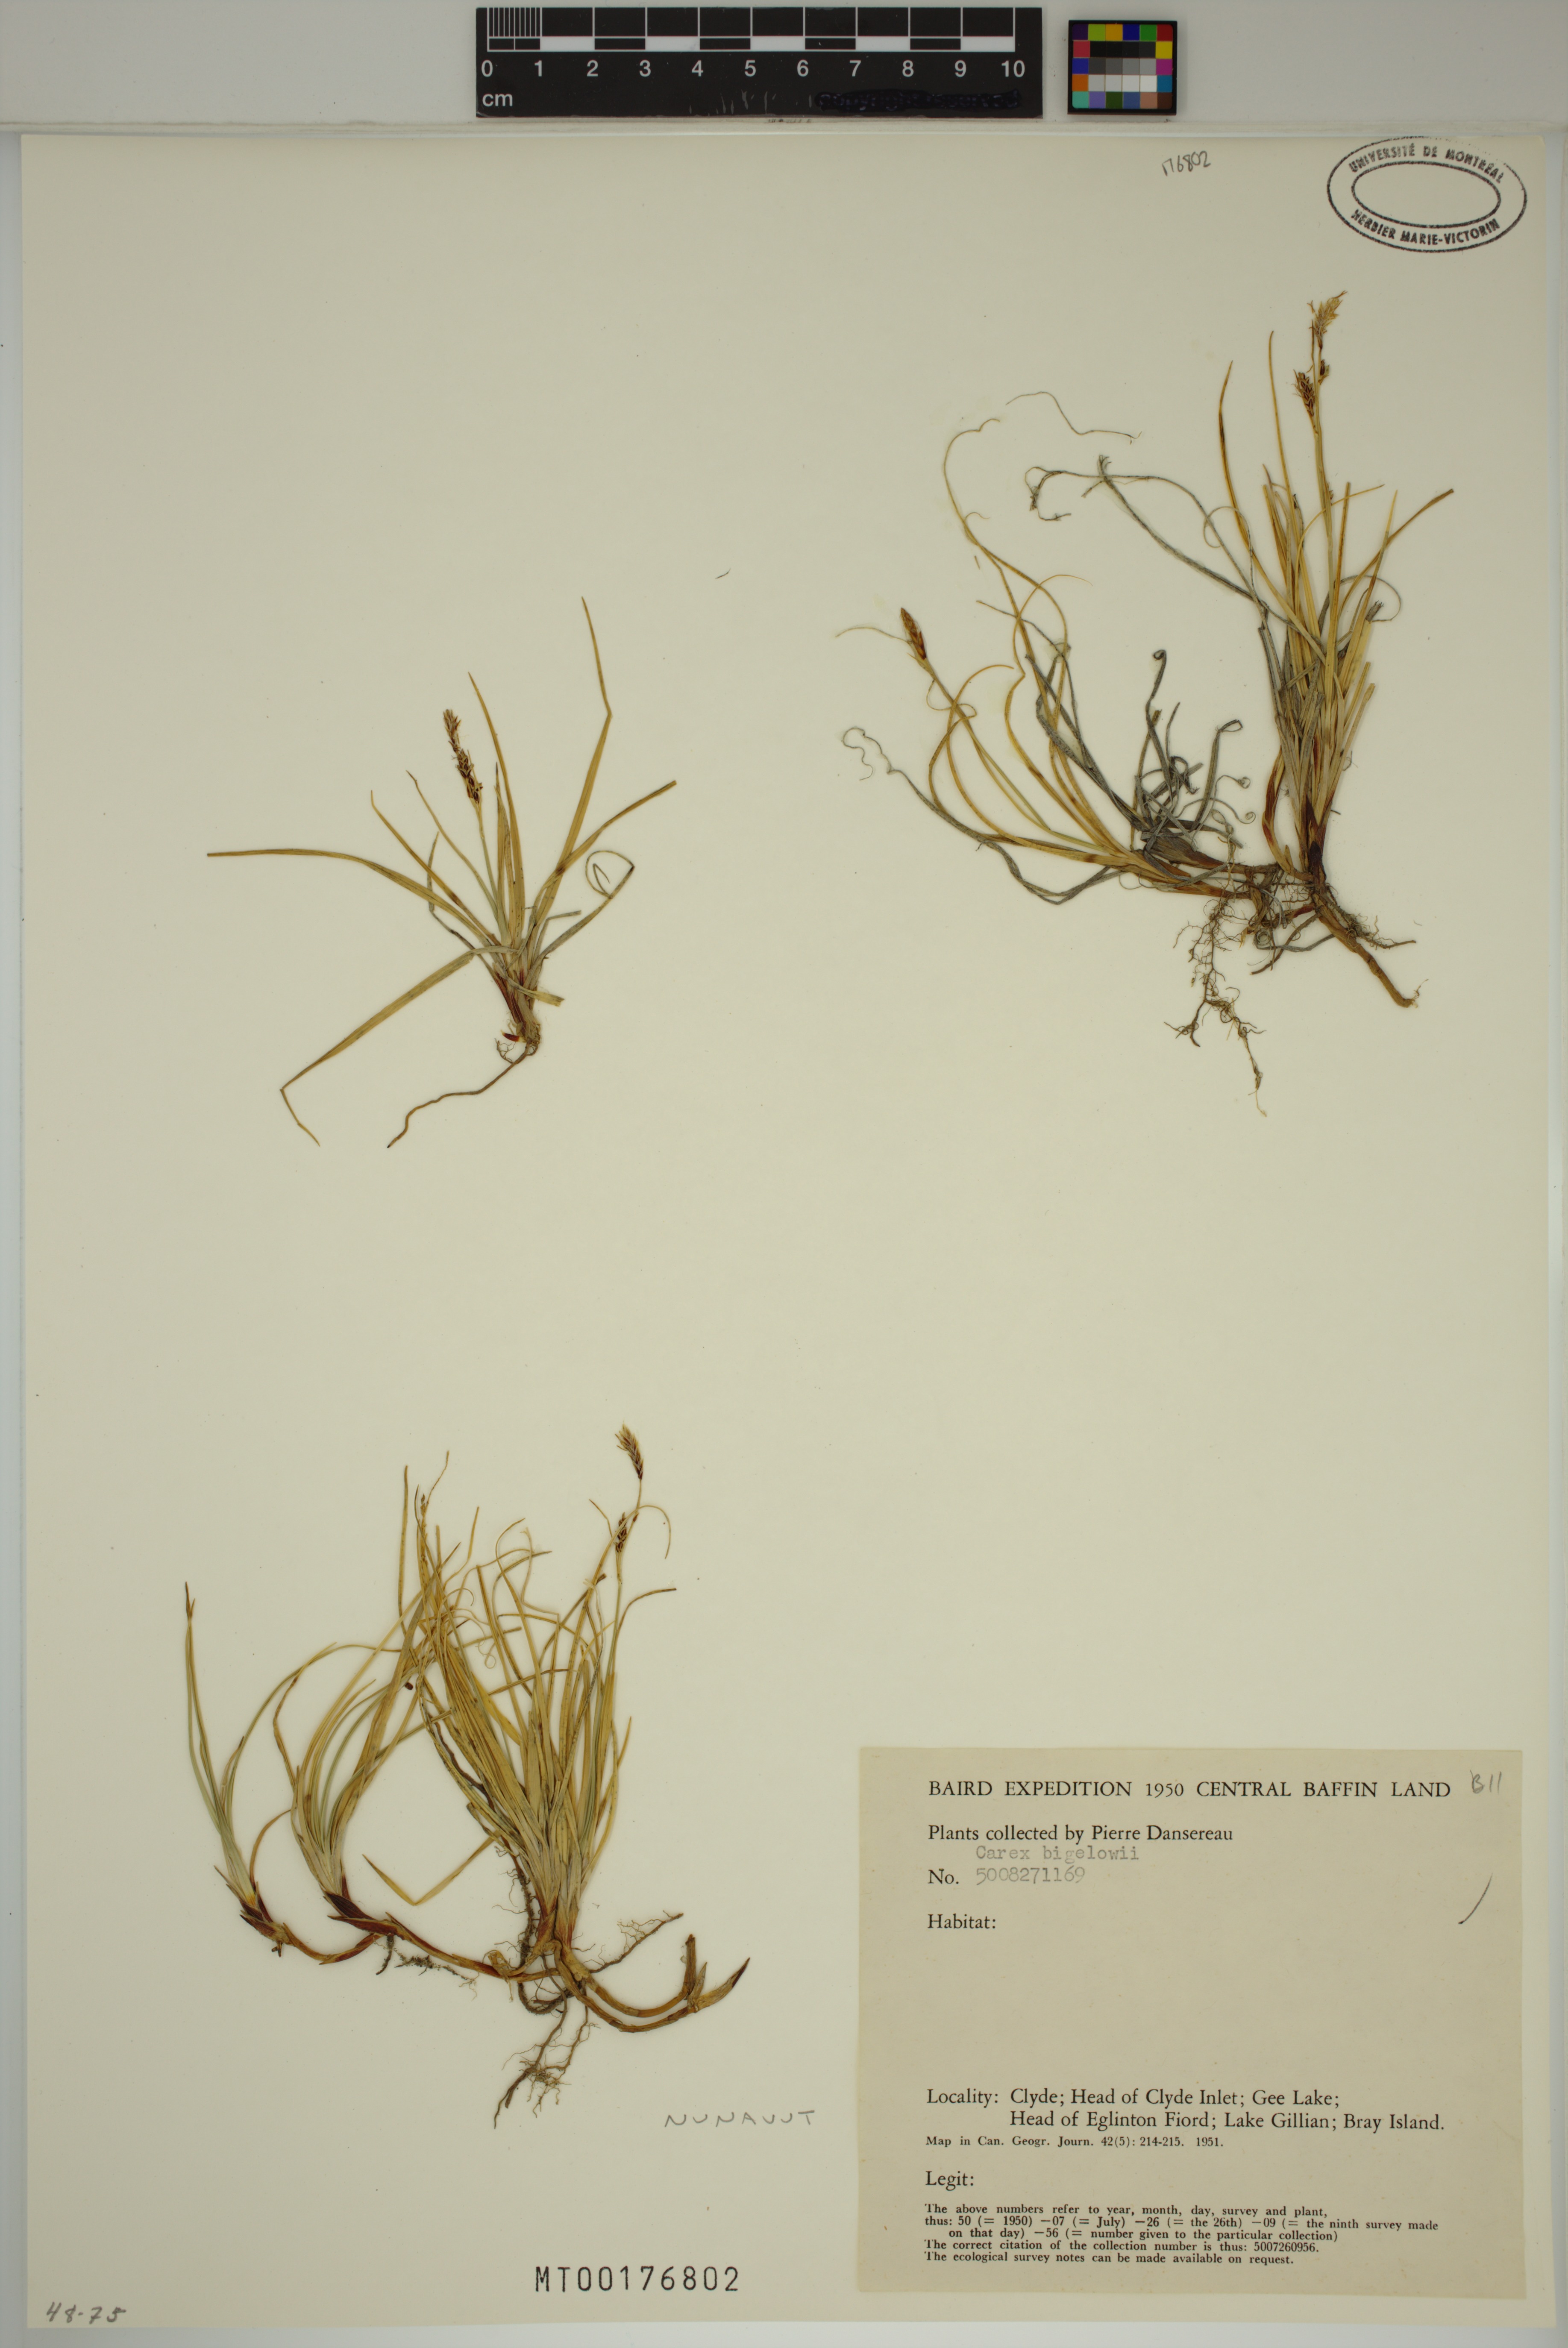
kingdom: Plantae
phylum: Tracheophyta
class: Liliopsida
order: Poales
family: Cyperaceae
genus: Carex
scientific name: Carex bigelowii
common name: Stiff sedge
